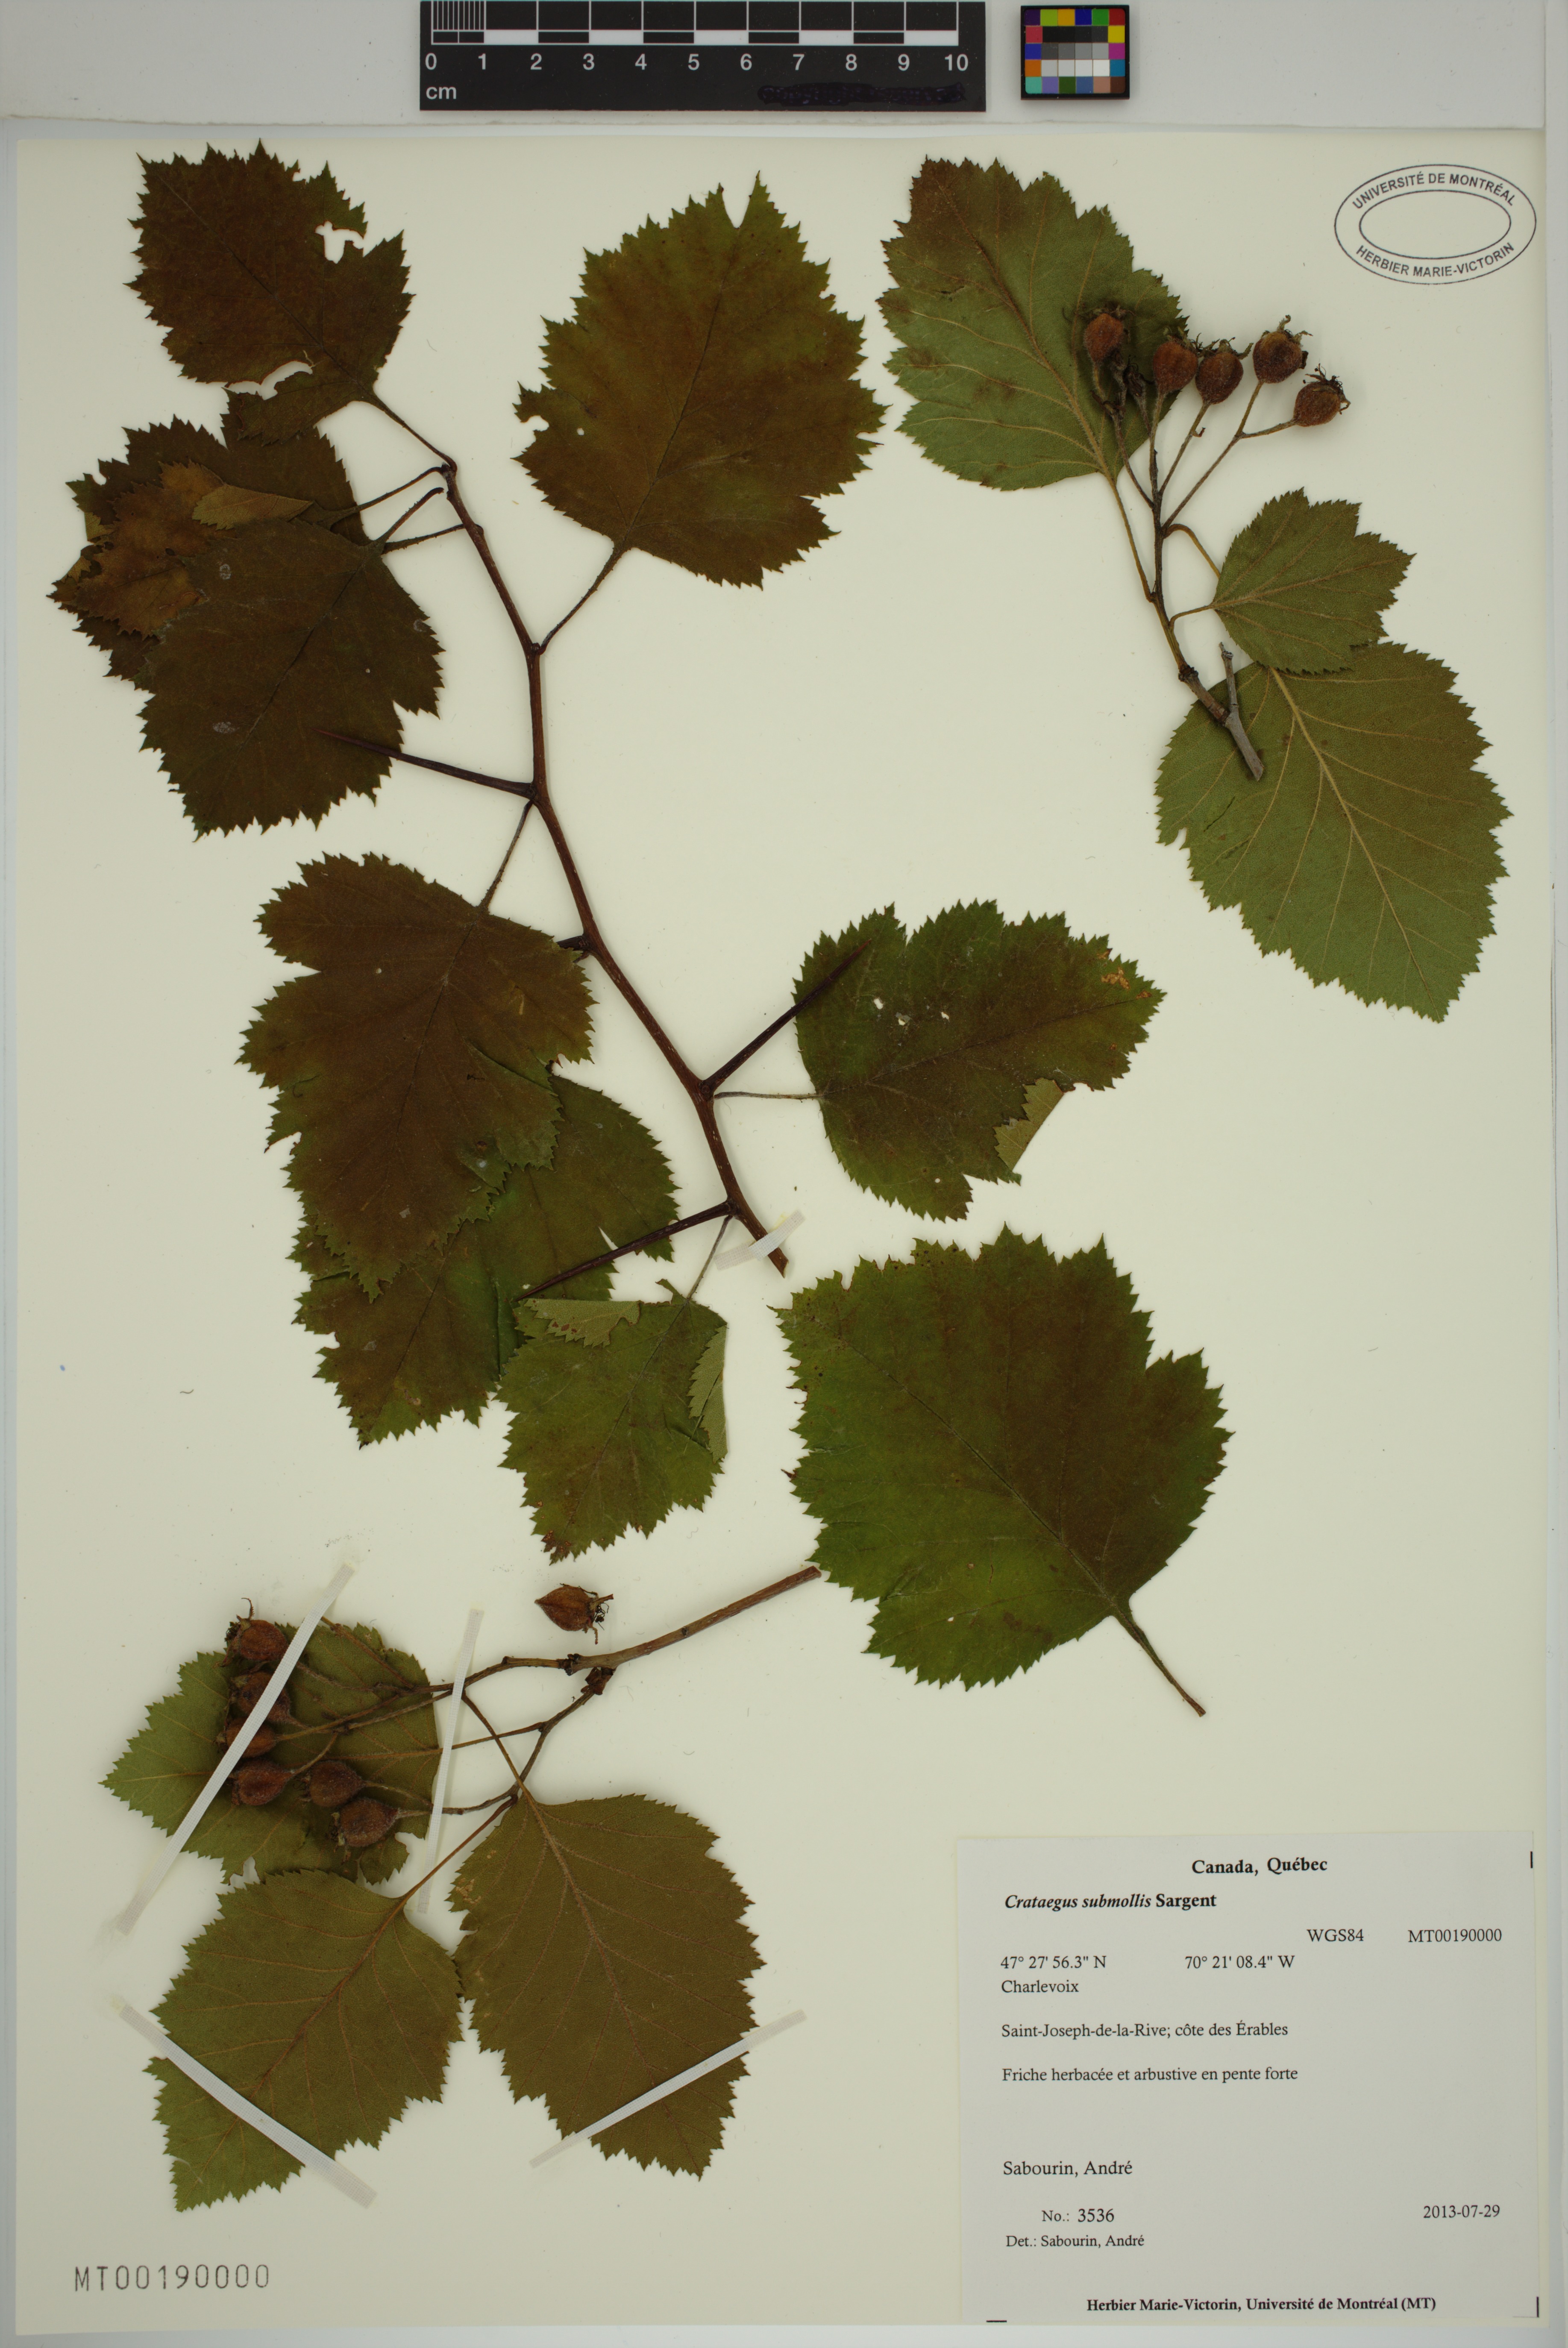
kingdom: Plantae
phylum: Tracheophyta
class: Magnoliopsida
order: Rosales
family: Rosaceae
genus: Crataegus
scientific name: Crataegus submollis
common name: Hairy cockspurthorn
